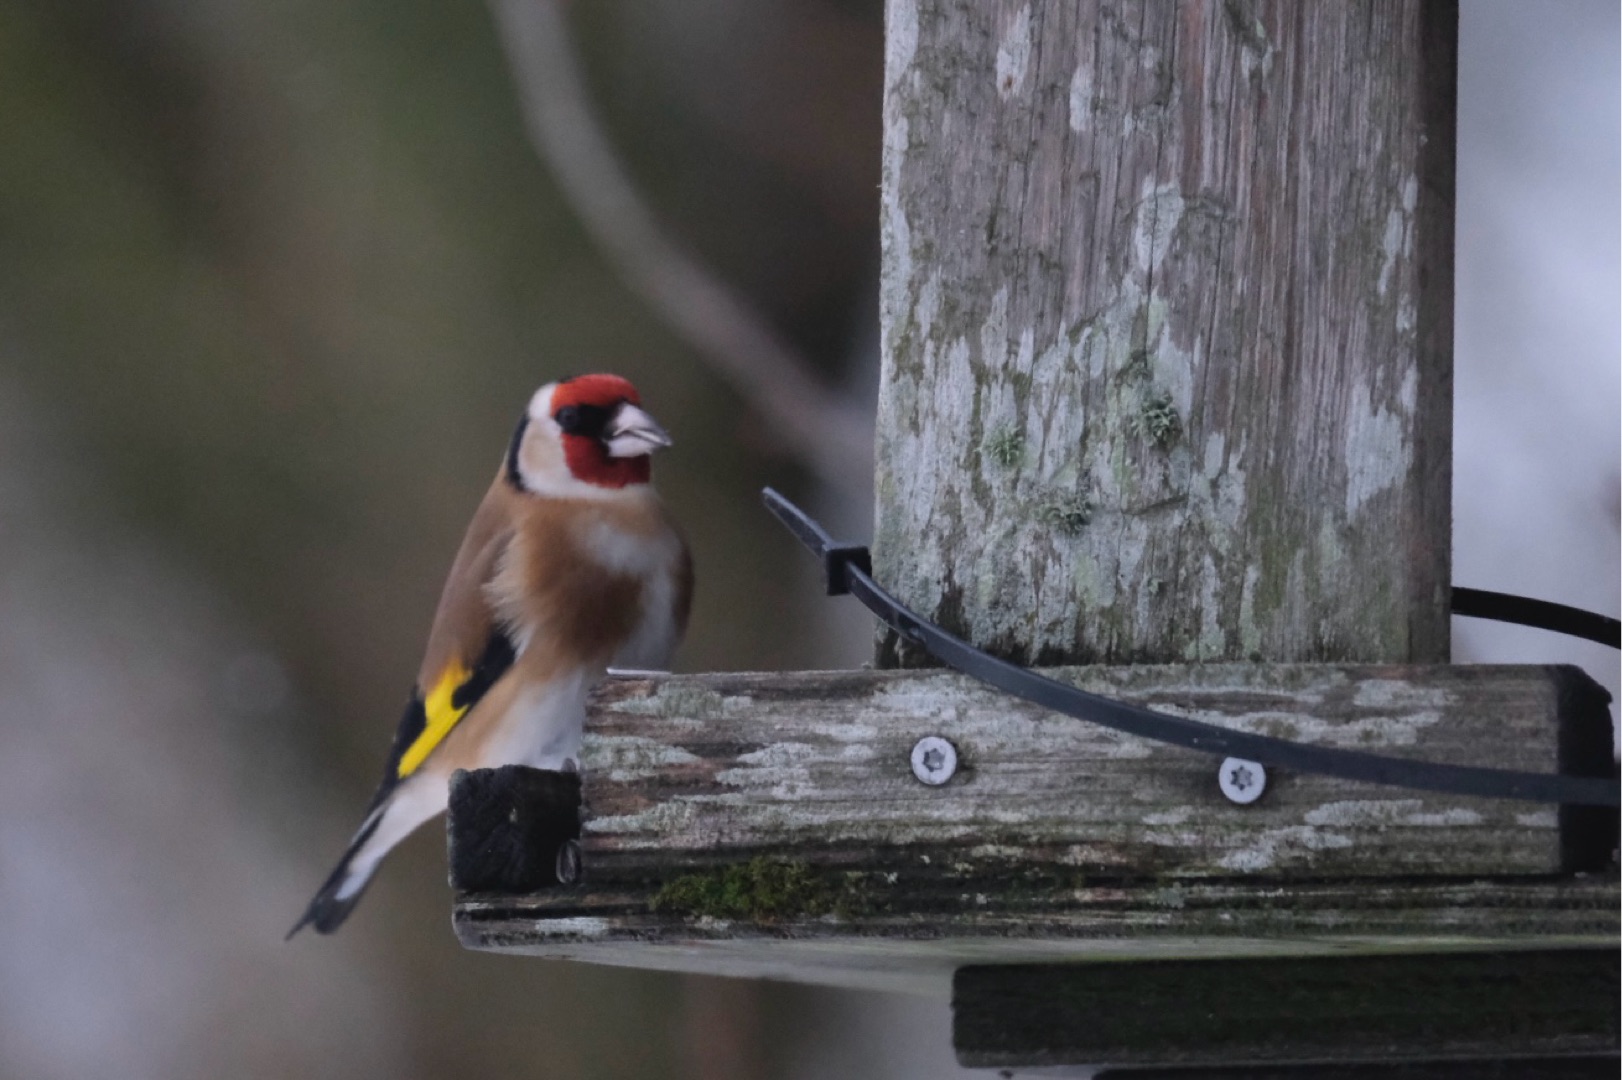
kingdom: Animalia
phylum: Chordata
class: Aves
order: Passeriformes
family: Fringillidae
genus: Carduelis
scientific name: Carduelis carduelis
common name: Stillits
